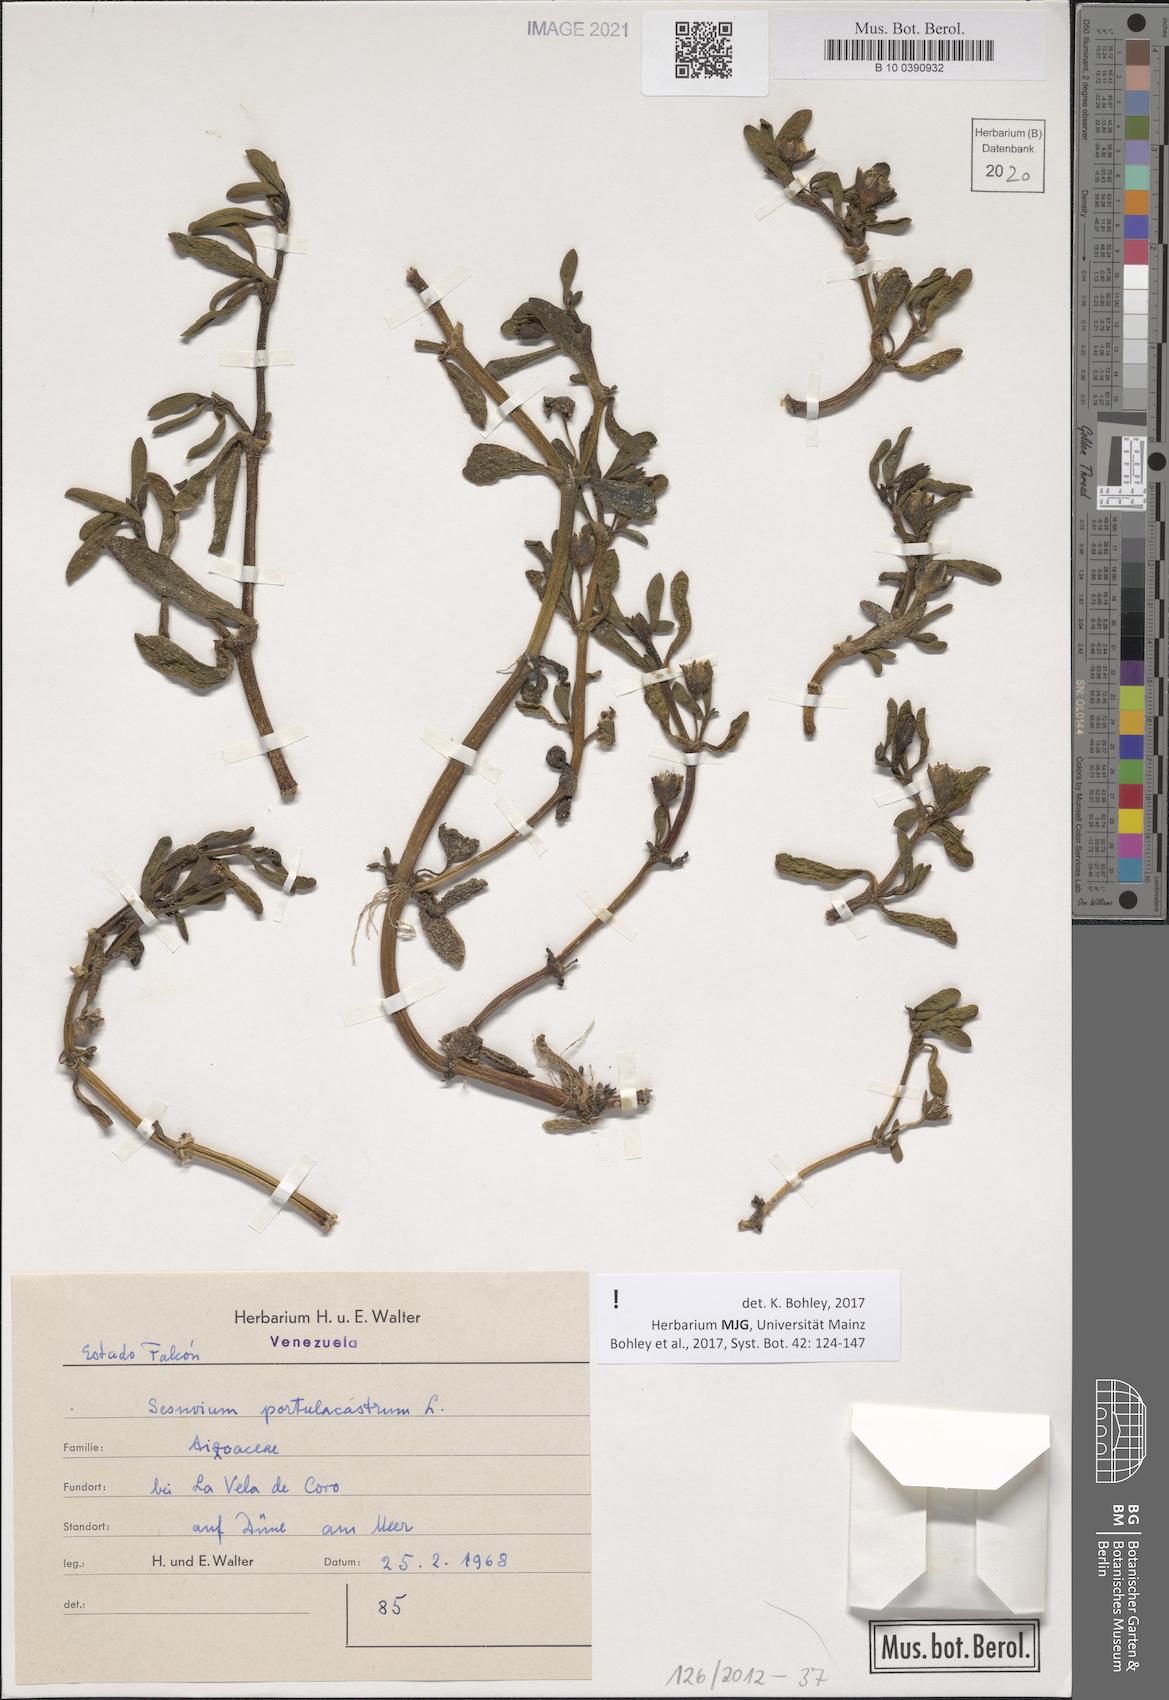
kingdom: Plantae
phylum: Tracheophyta
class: Magnoliopsida
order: Caryophyllales
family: Aizoaceae
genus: Sesuvium
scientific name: Sesuvium portulacastrum
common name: Sea-purslane
